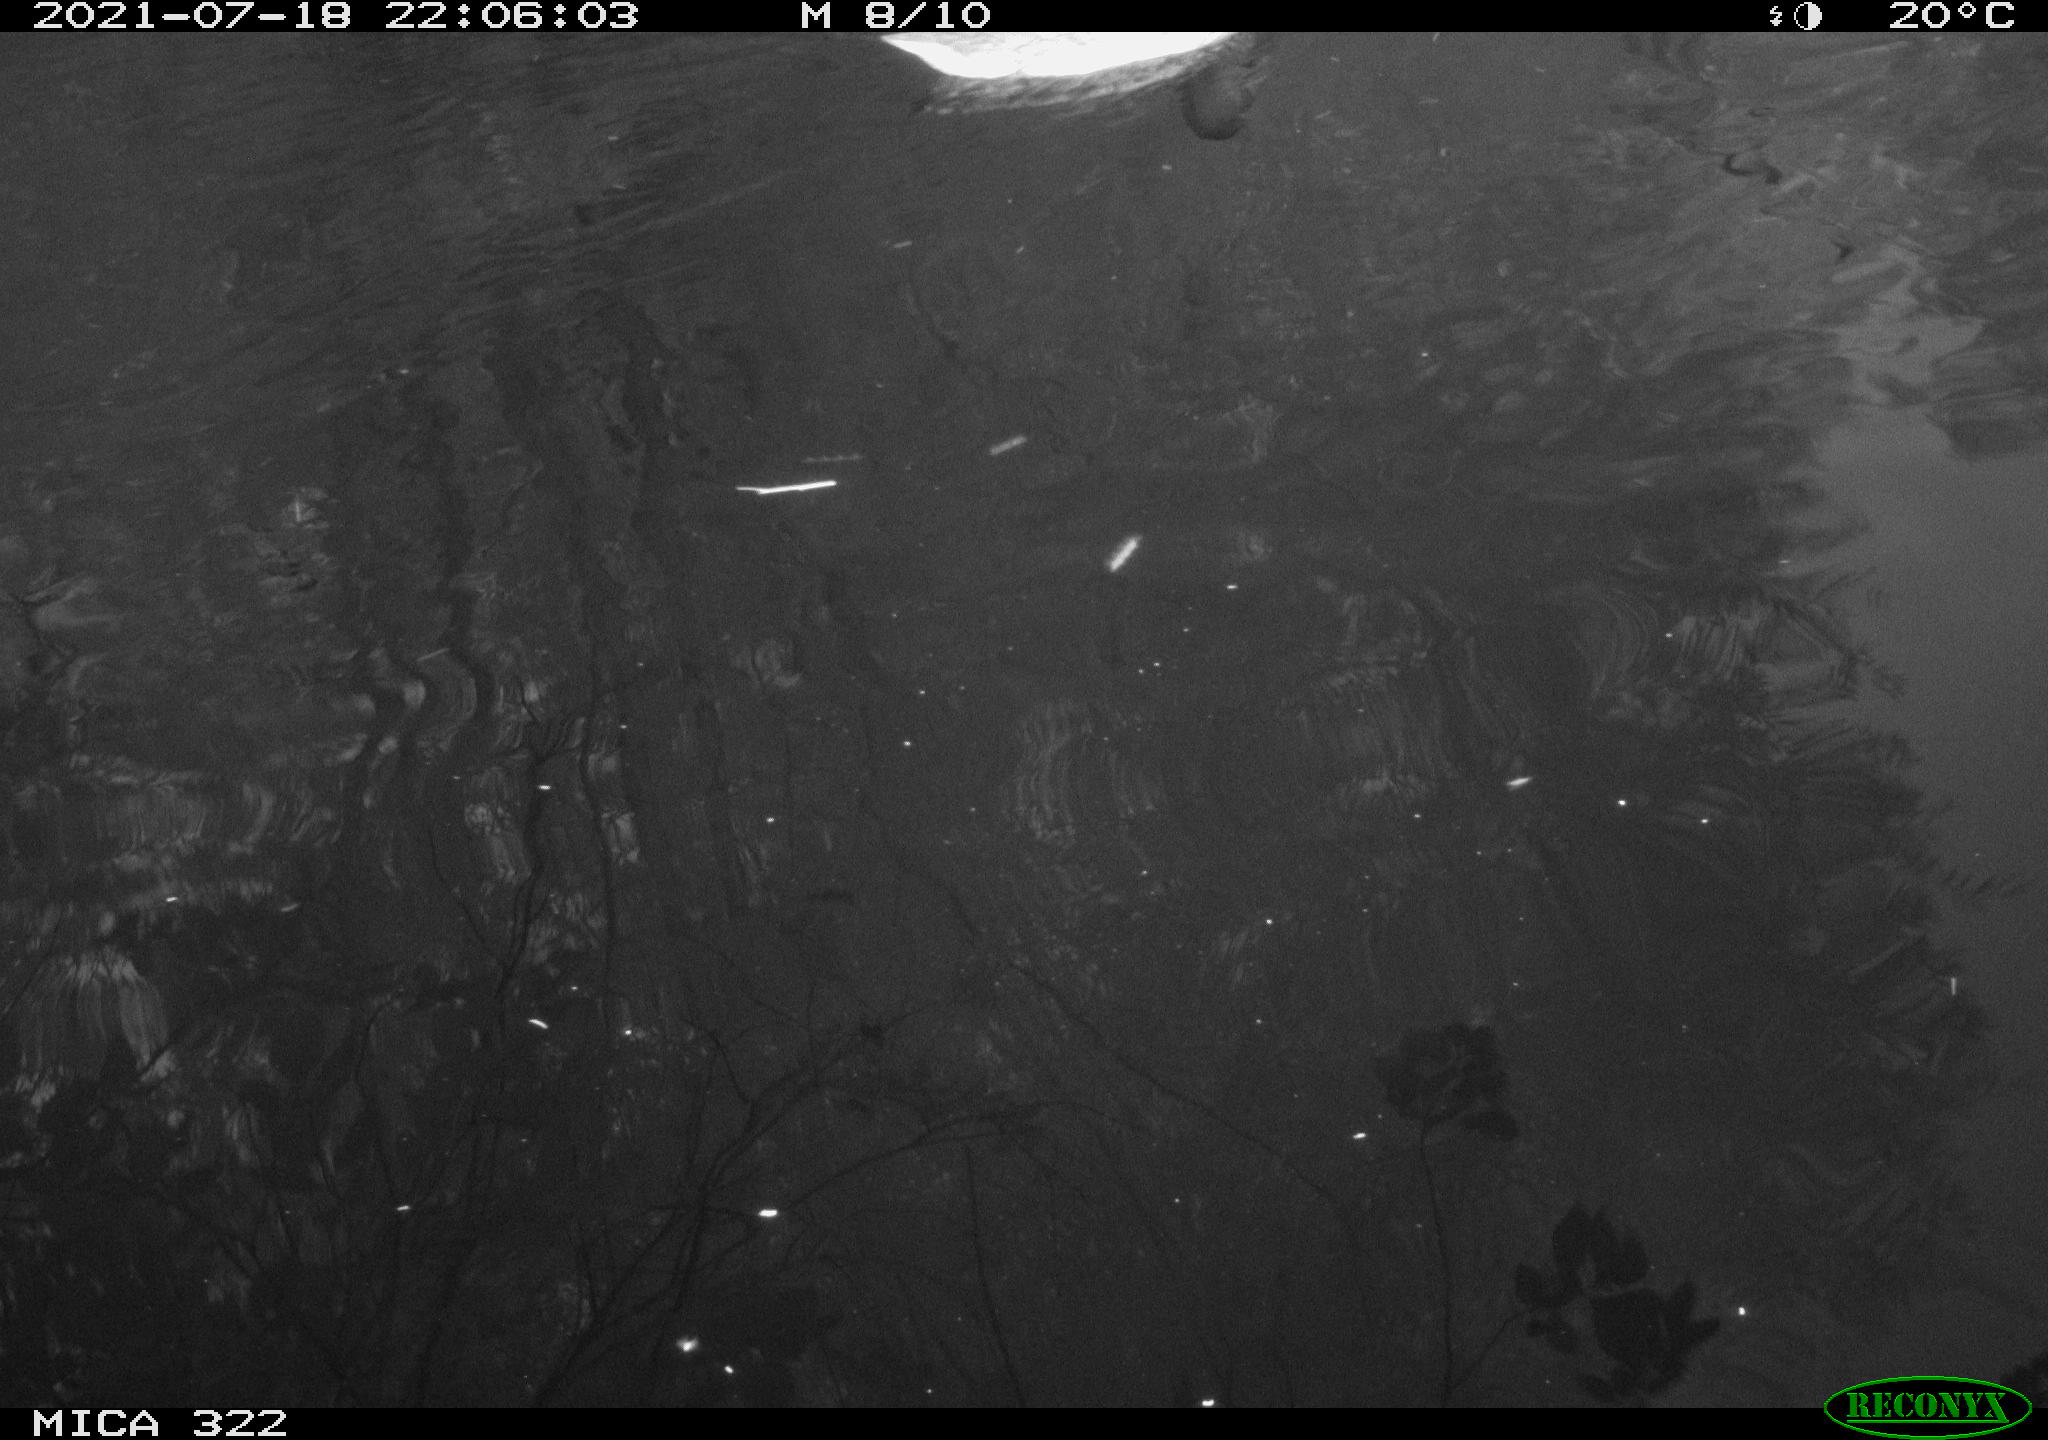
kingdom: Animalia
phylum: Chordata
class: Aves
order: Anseriformes
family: Anatidae
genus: Mareca
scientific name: Mareca strepera
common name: Gadwall
